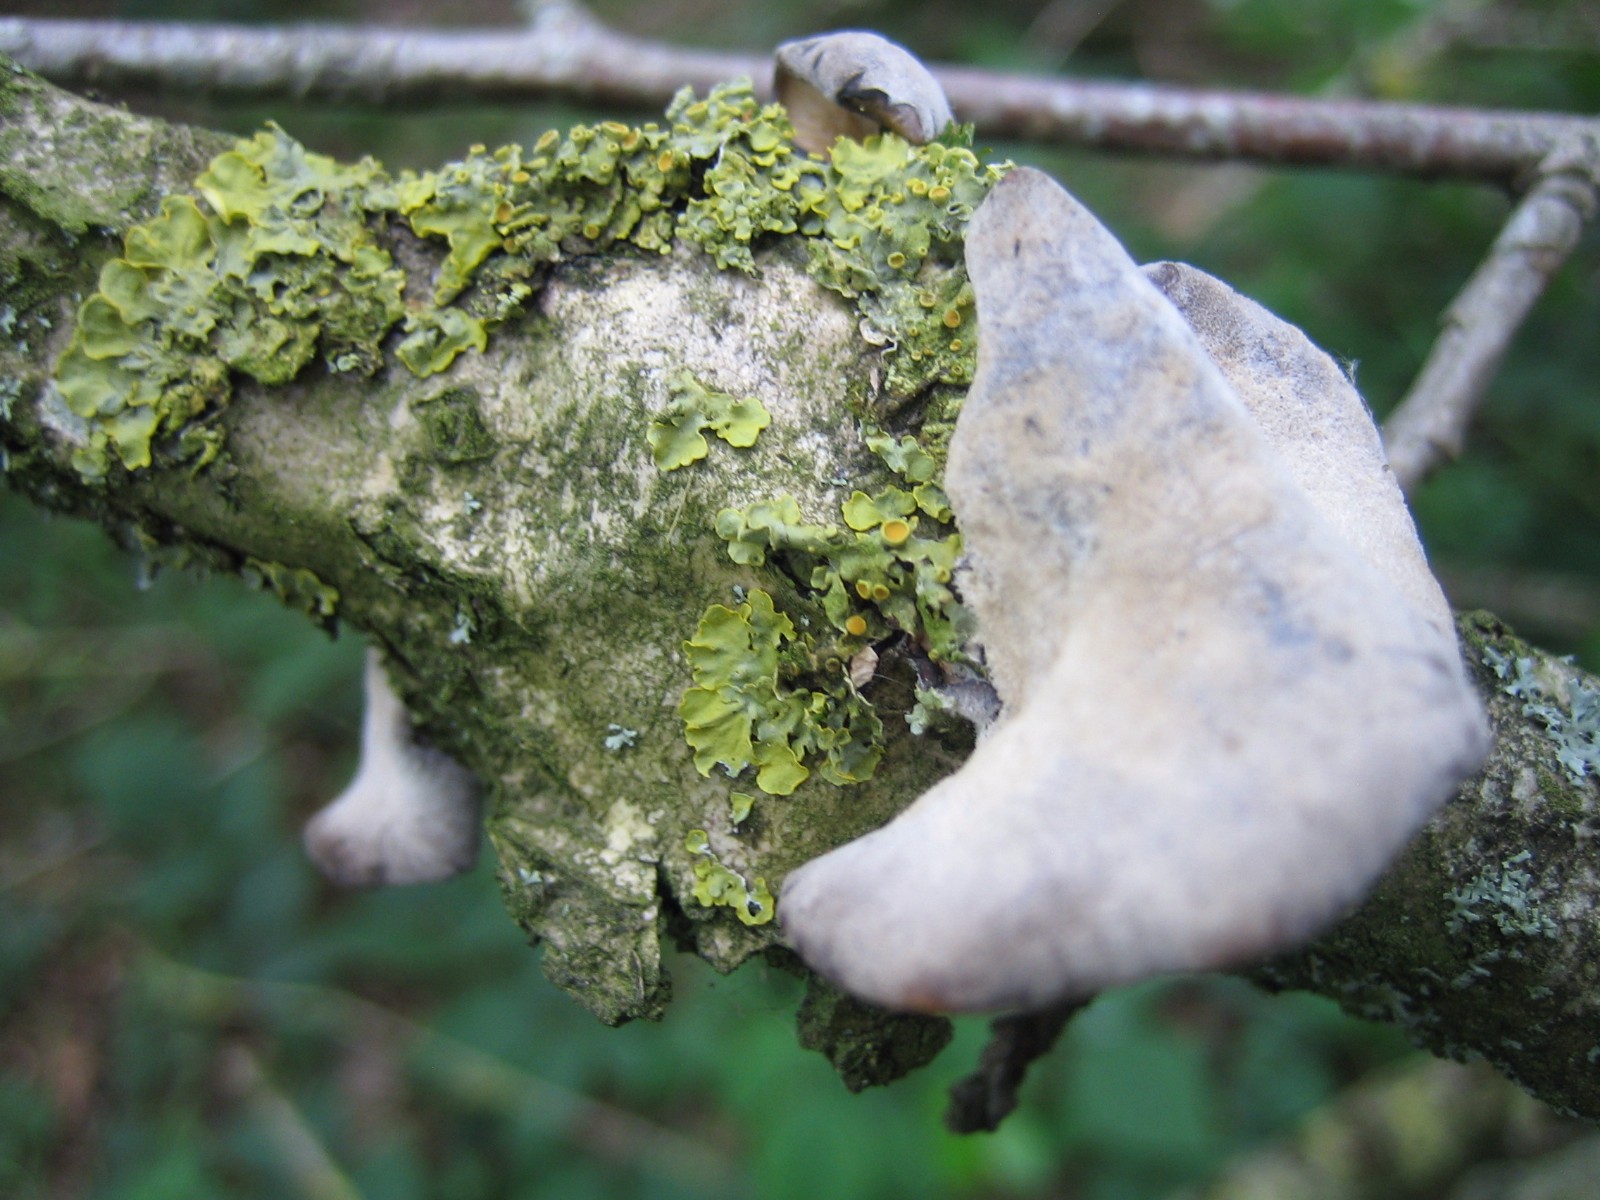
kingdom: Fungi
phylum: Basidiomycota
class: Agaricomycetes
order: Agaricales
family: Pleurotaceae
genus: Hohenbuehelia
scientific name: Hohenbuehelia
